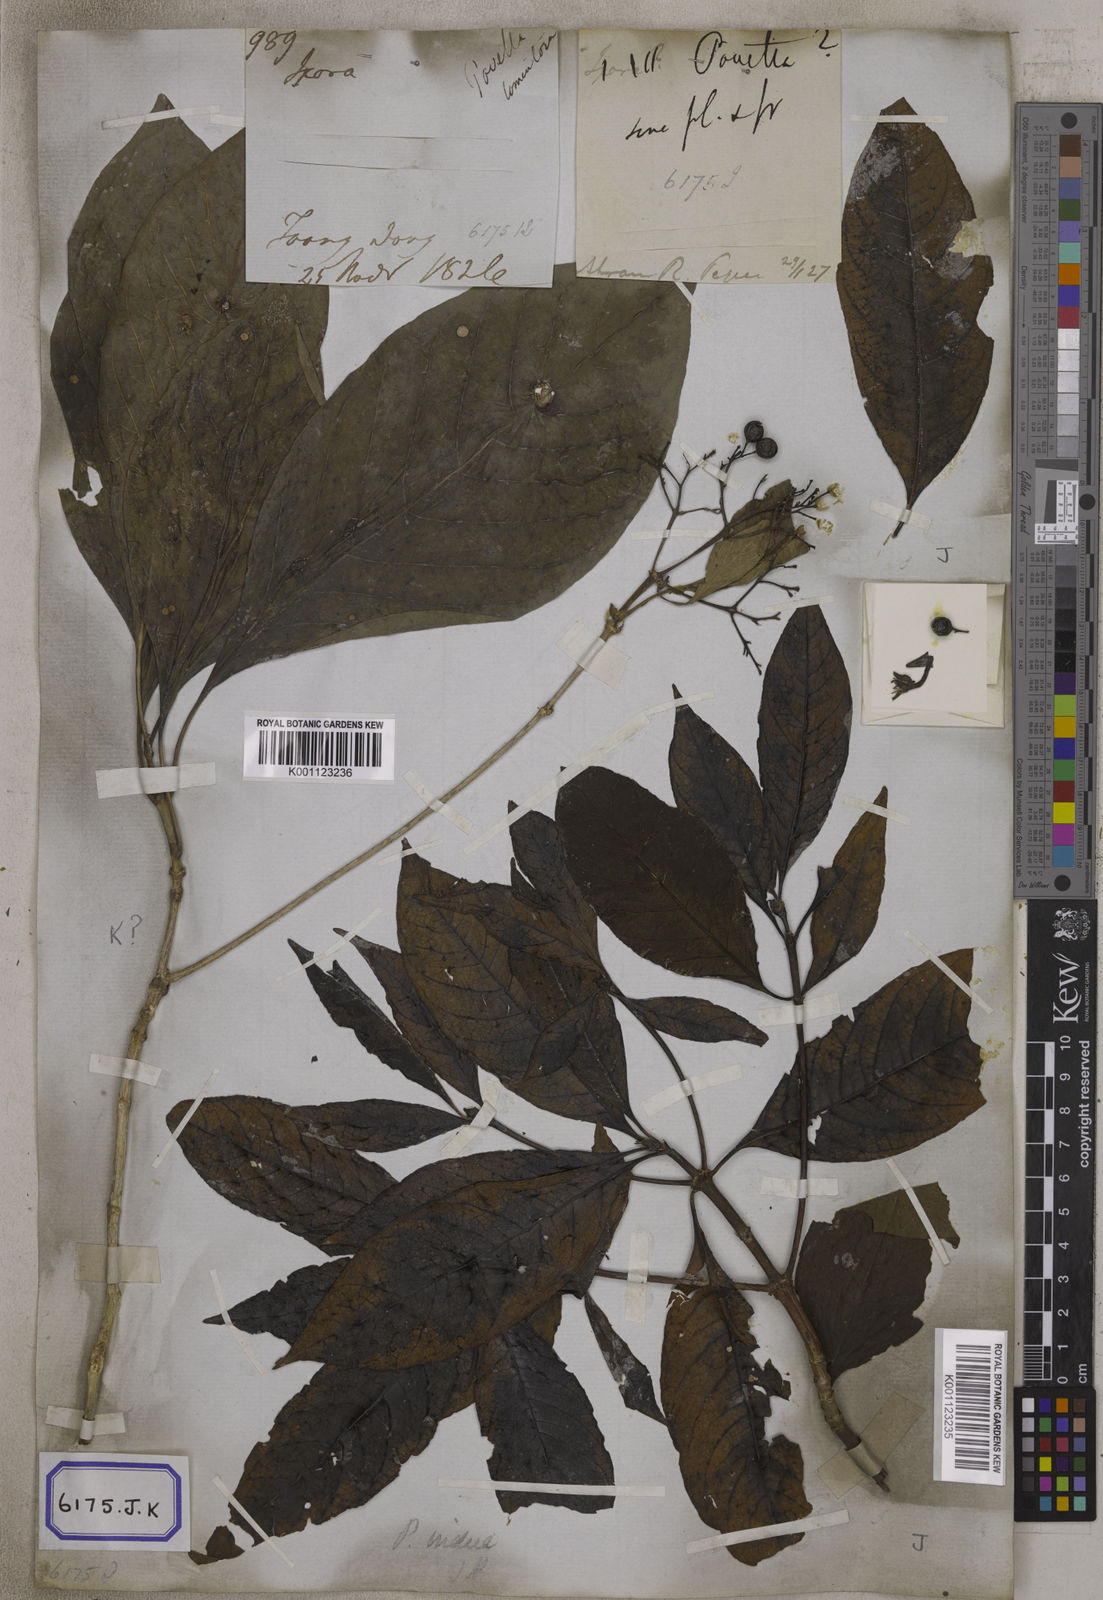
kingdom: Plantae
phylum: Tracheophyta
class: Magnoliopsida
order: Gentianales
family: Rubiaceae
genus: Pavetta
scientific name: Pavetta indica
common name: Indian pavetta
